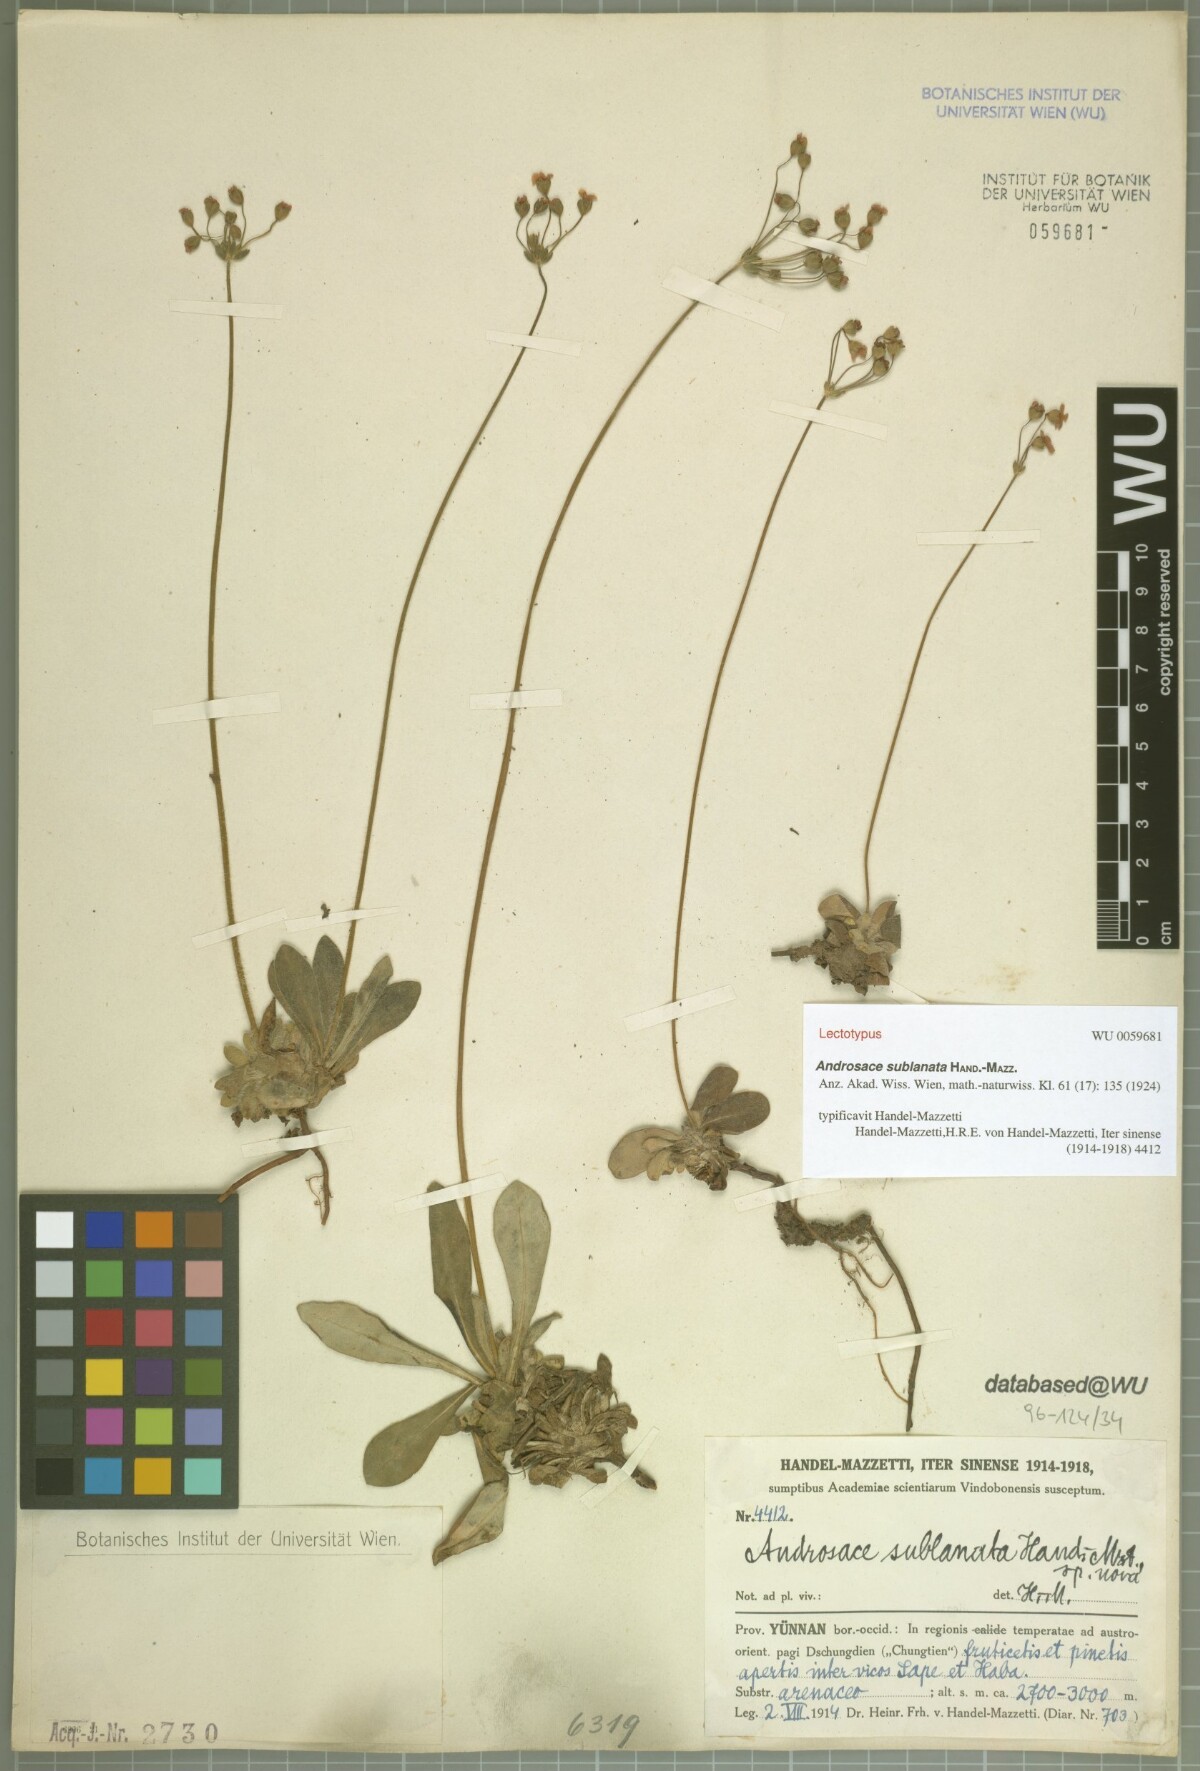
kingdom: Plantae
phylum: Tracheophyta
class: Magnoliopsida
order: Ericales
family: Primulaceae
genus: Androsace
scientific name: Androsace sublanata
